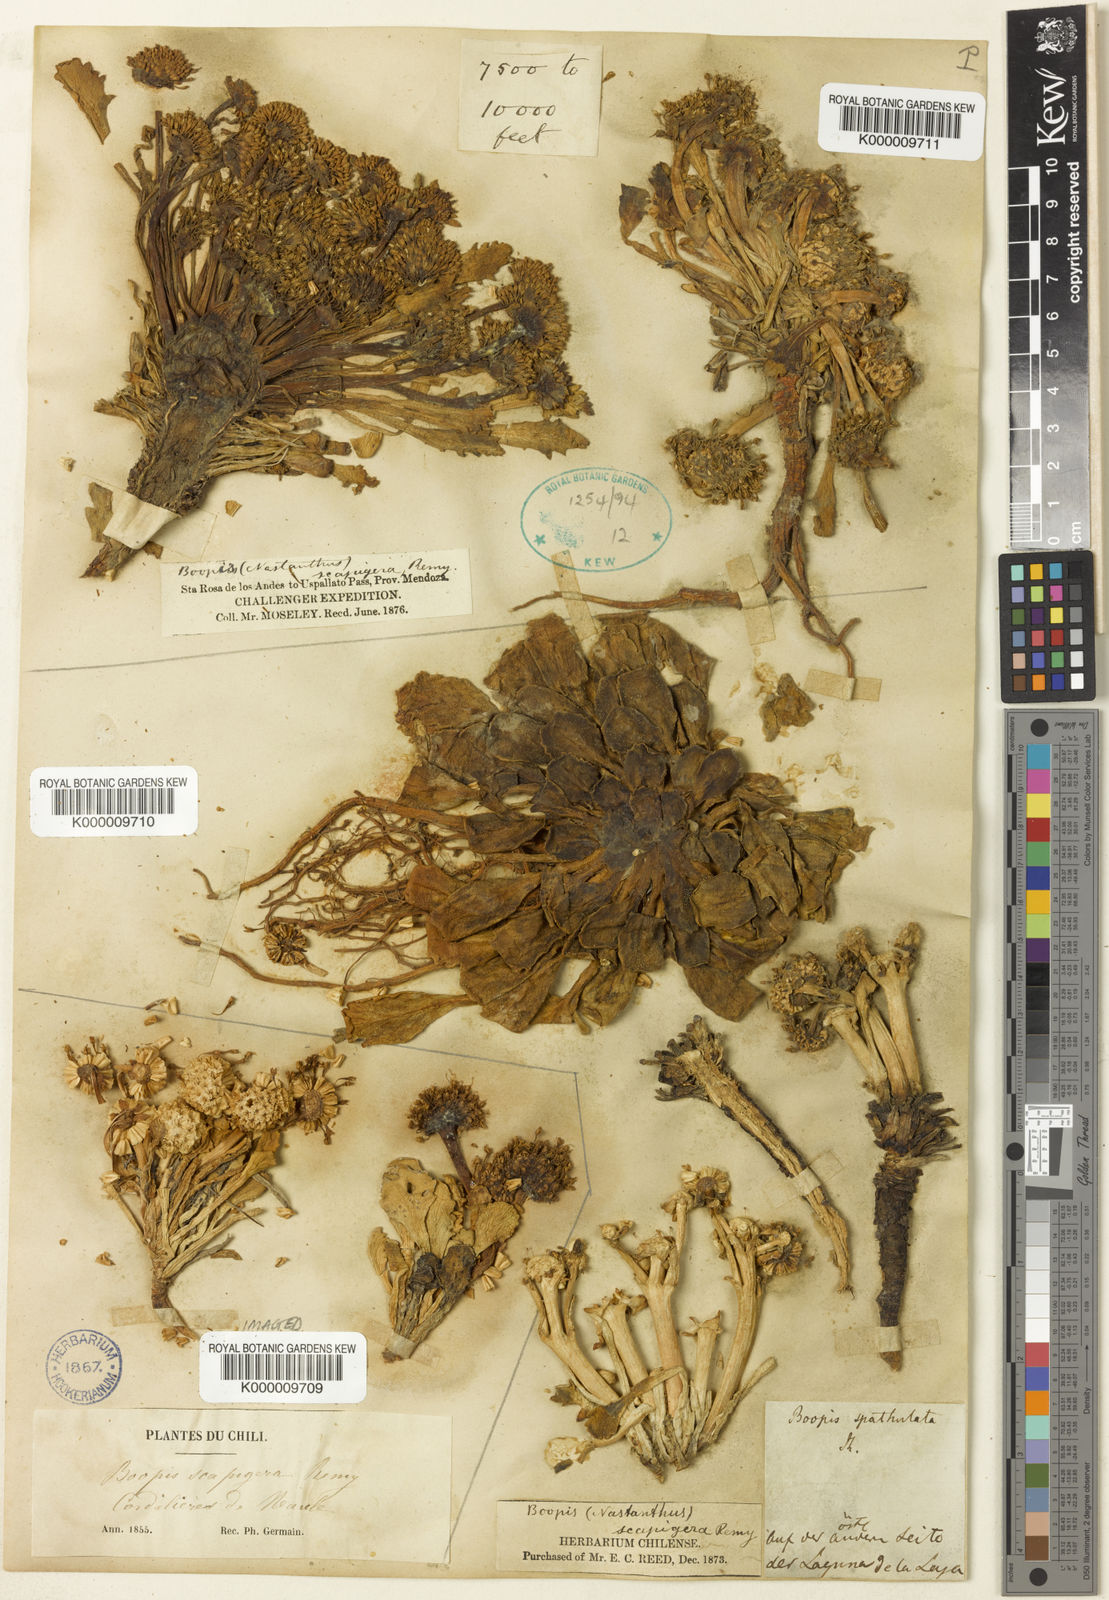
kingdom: Plantae
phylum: Tracheophyta
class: Magnoliopsida
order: Asterales
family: Calyceraceae
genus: Gamocarpha
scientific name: Gamocarpha scapigera
